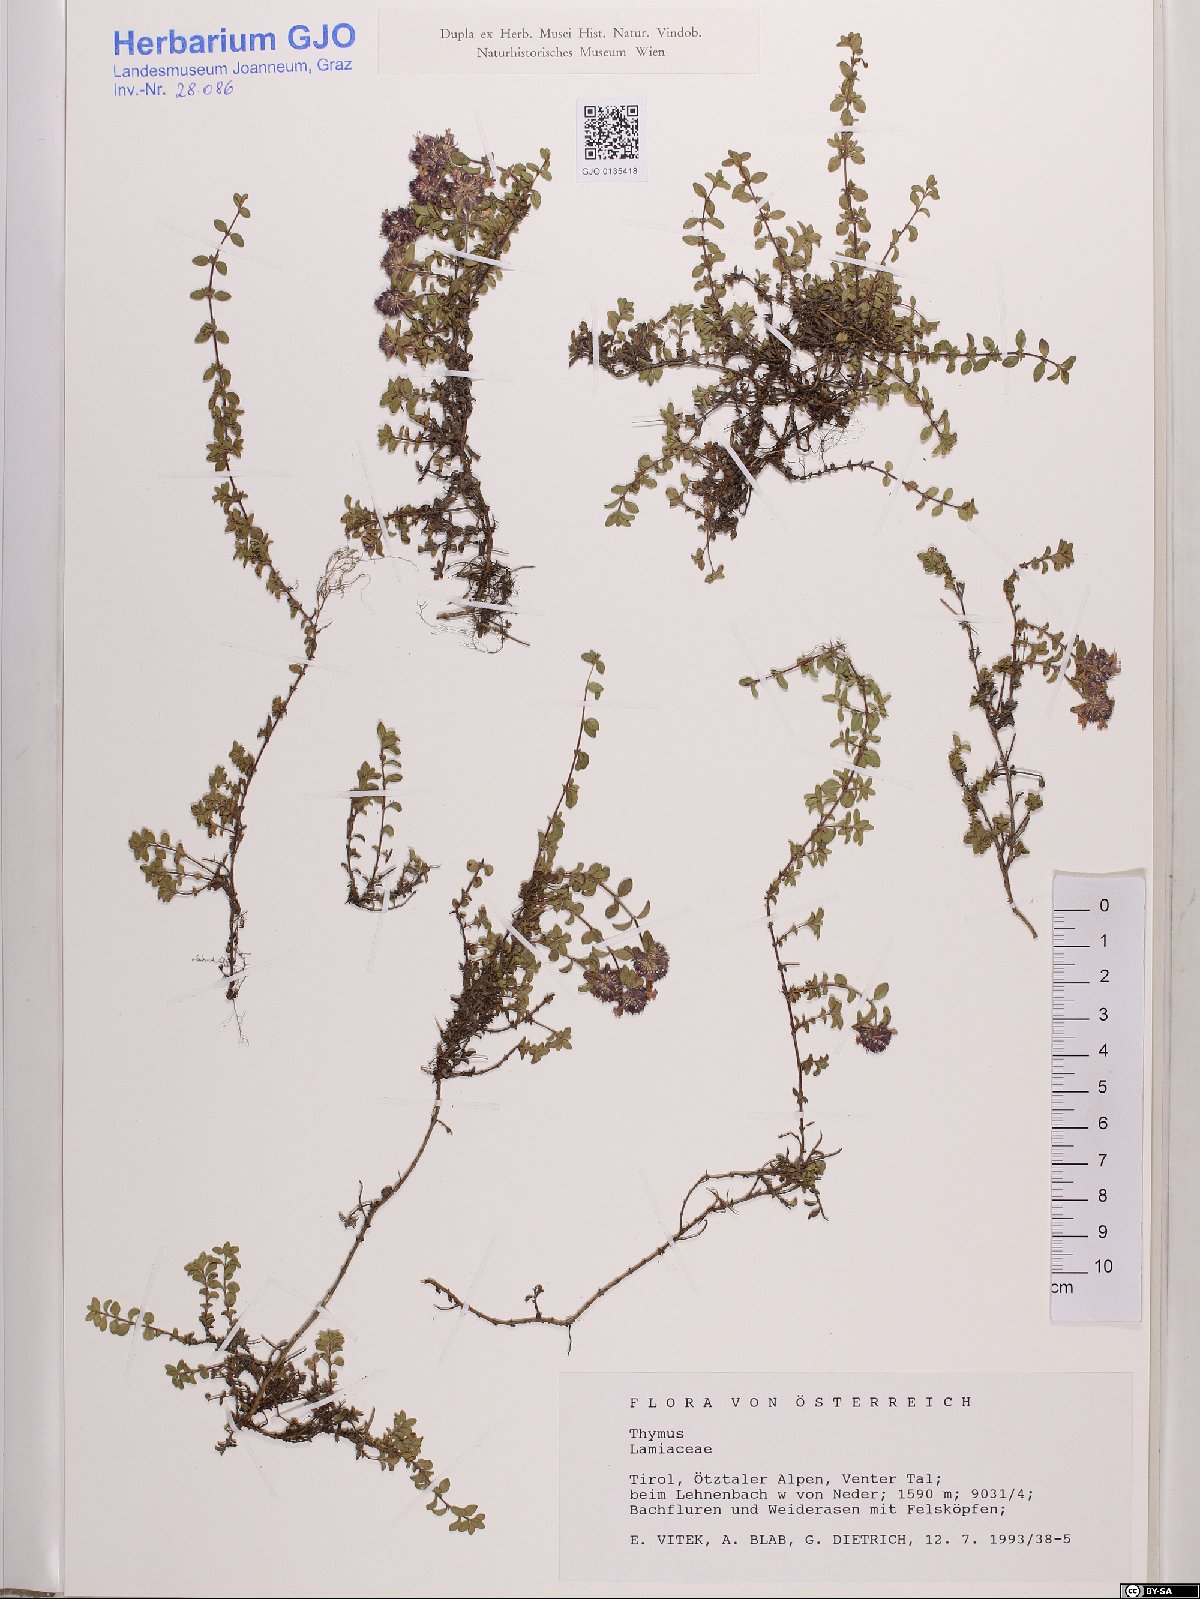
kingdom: Plantae
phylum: Tracheophyta
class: Magnoliopsida
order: Lamiales
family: Lamiaceae
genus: Thymus
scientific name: Thymus
